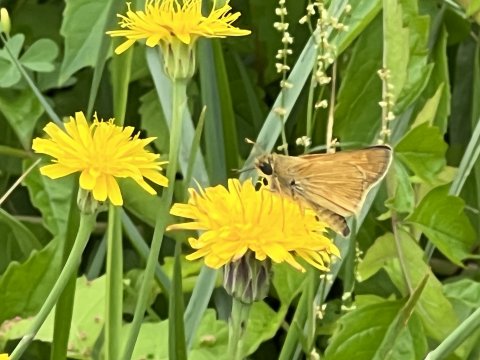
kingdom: Animalia
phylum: Arthropoda
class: Insecta
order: Lepidoptera
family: Hesperiidae
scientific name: Hesperiidae
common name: Skippers
